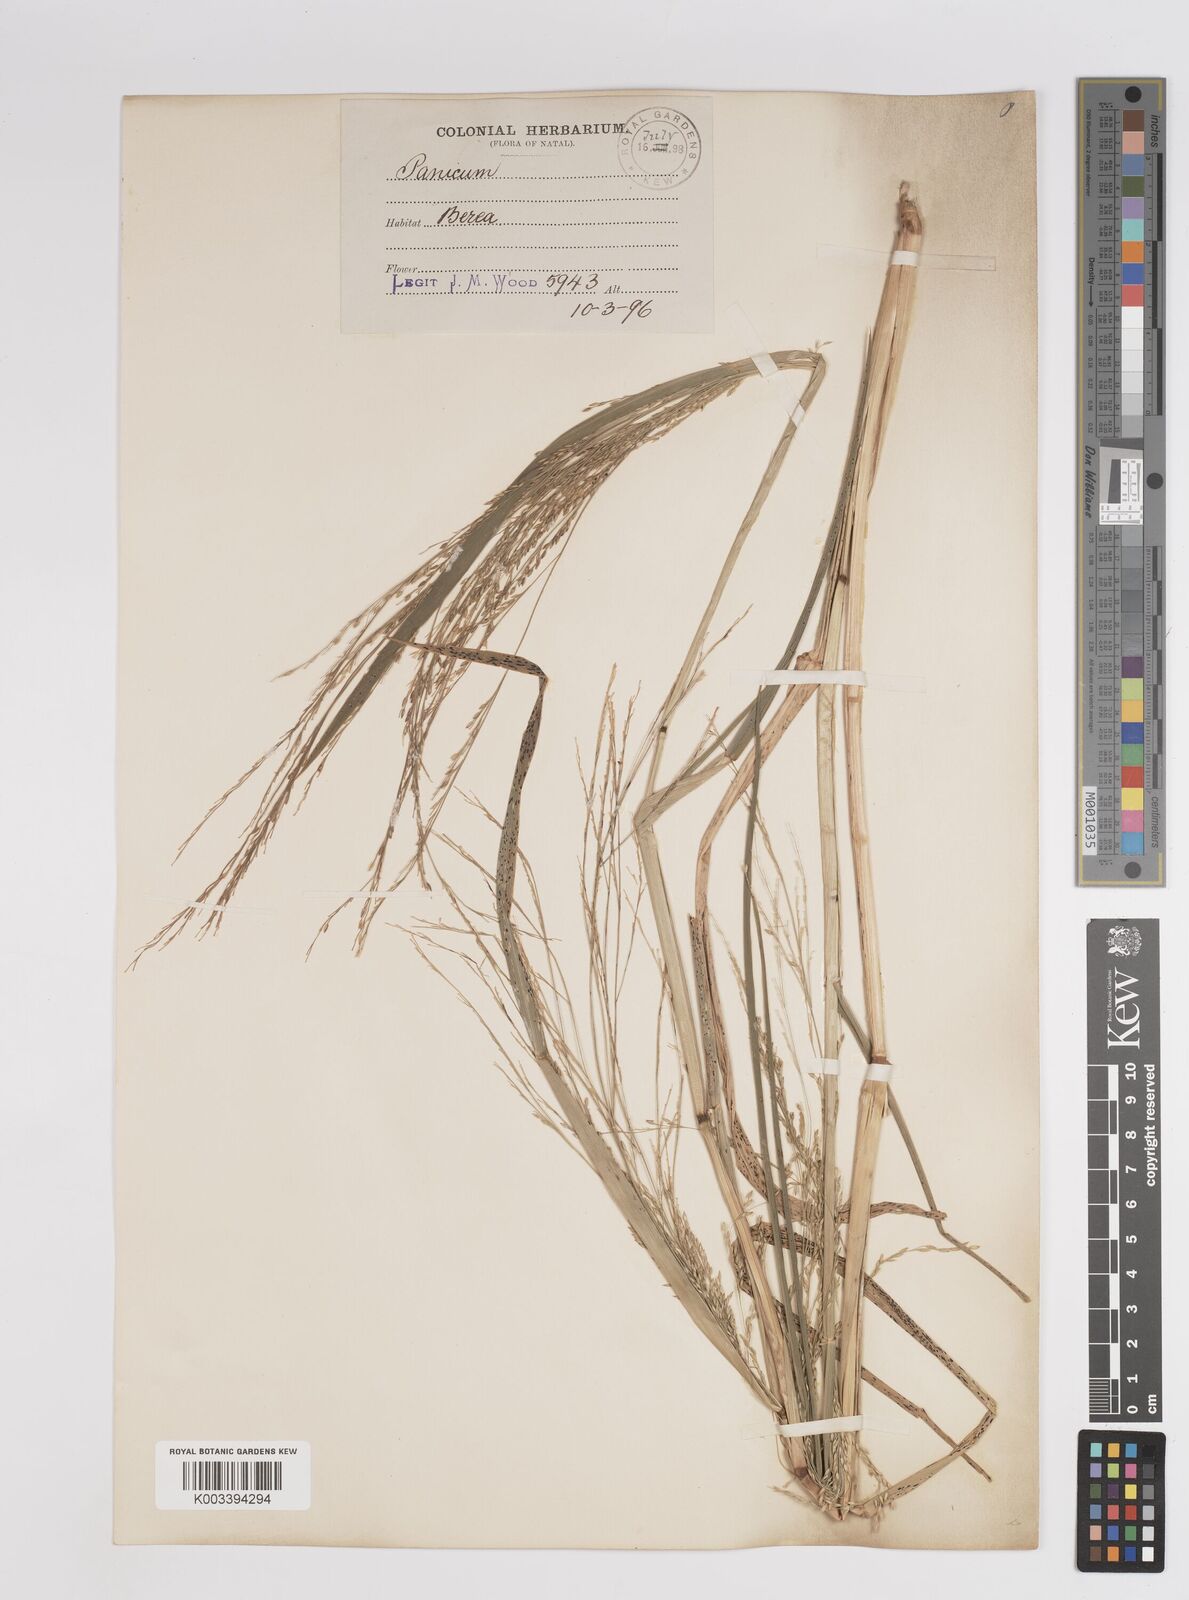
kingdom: Plantae
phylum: Tracheophyta
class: Liliopsida
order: Poales
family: Poaceae
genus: Panicum
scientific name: Panicum subalbidum
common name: Elbow buffalo grass
